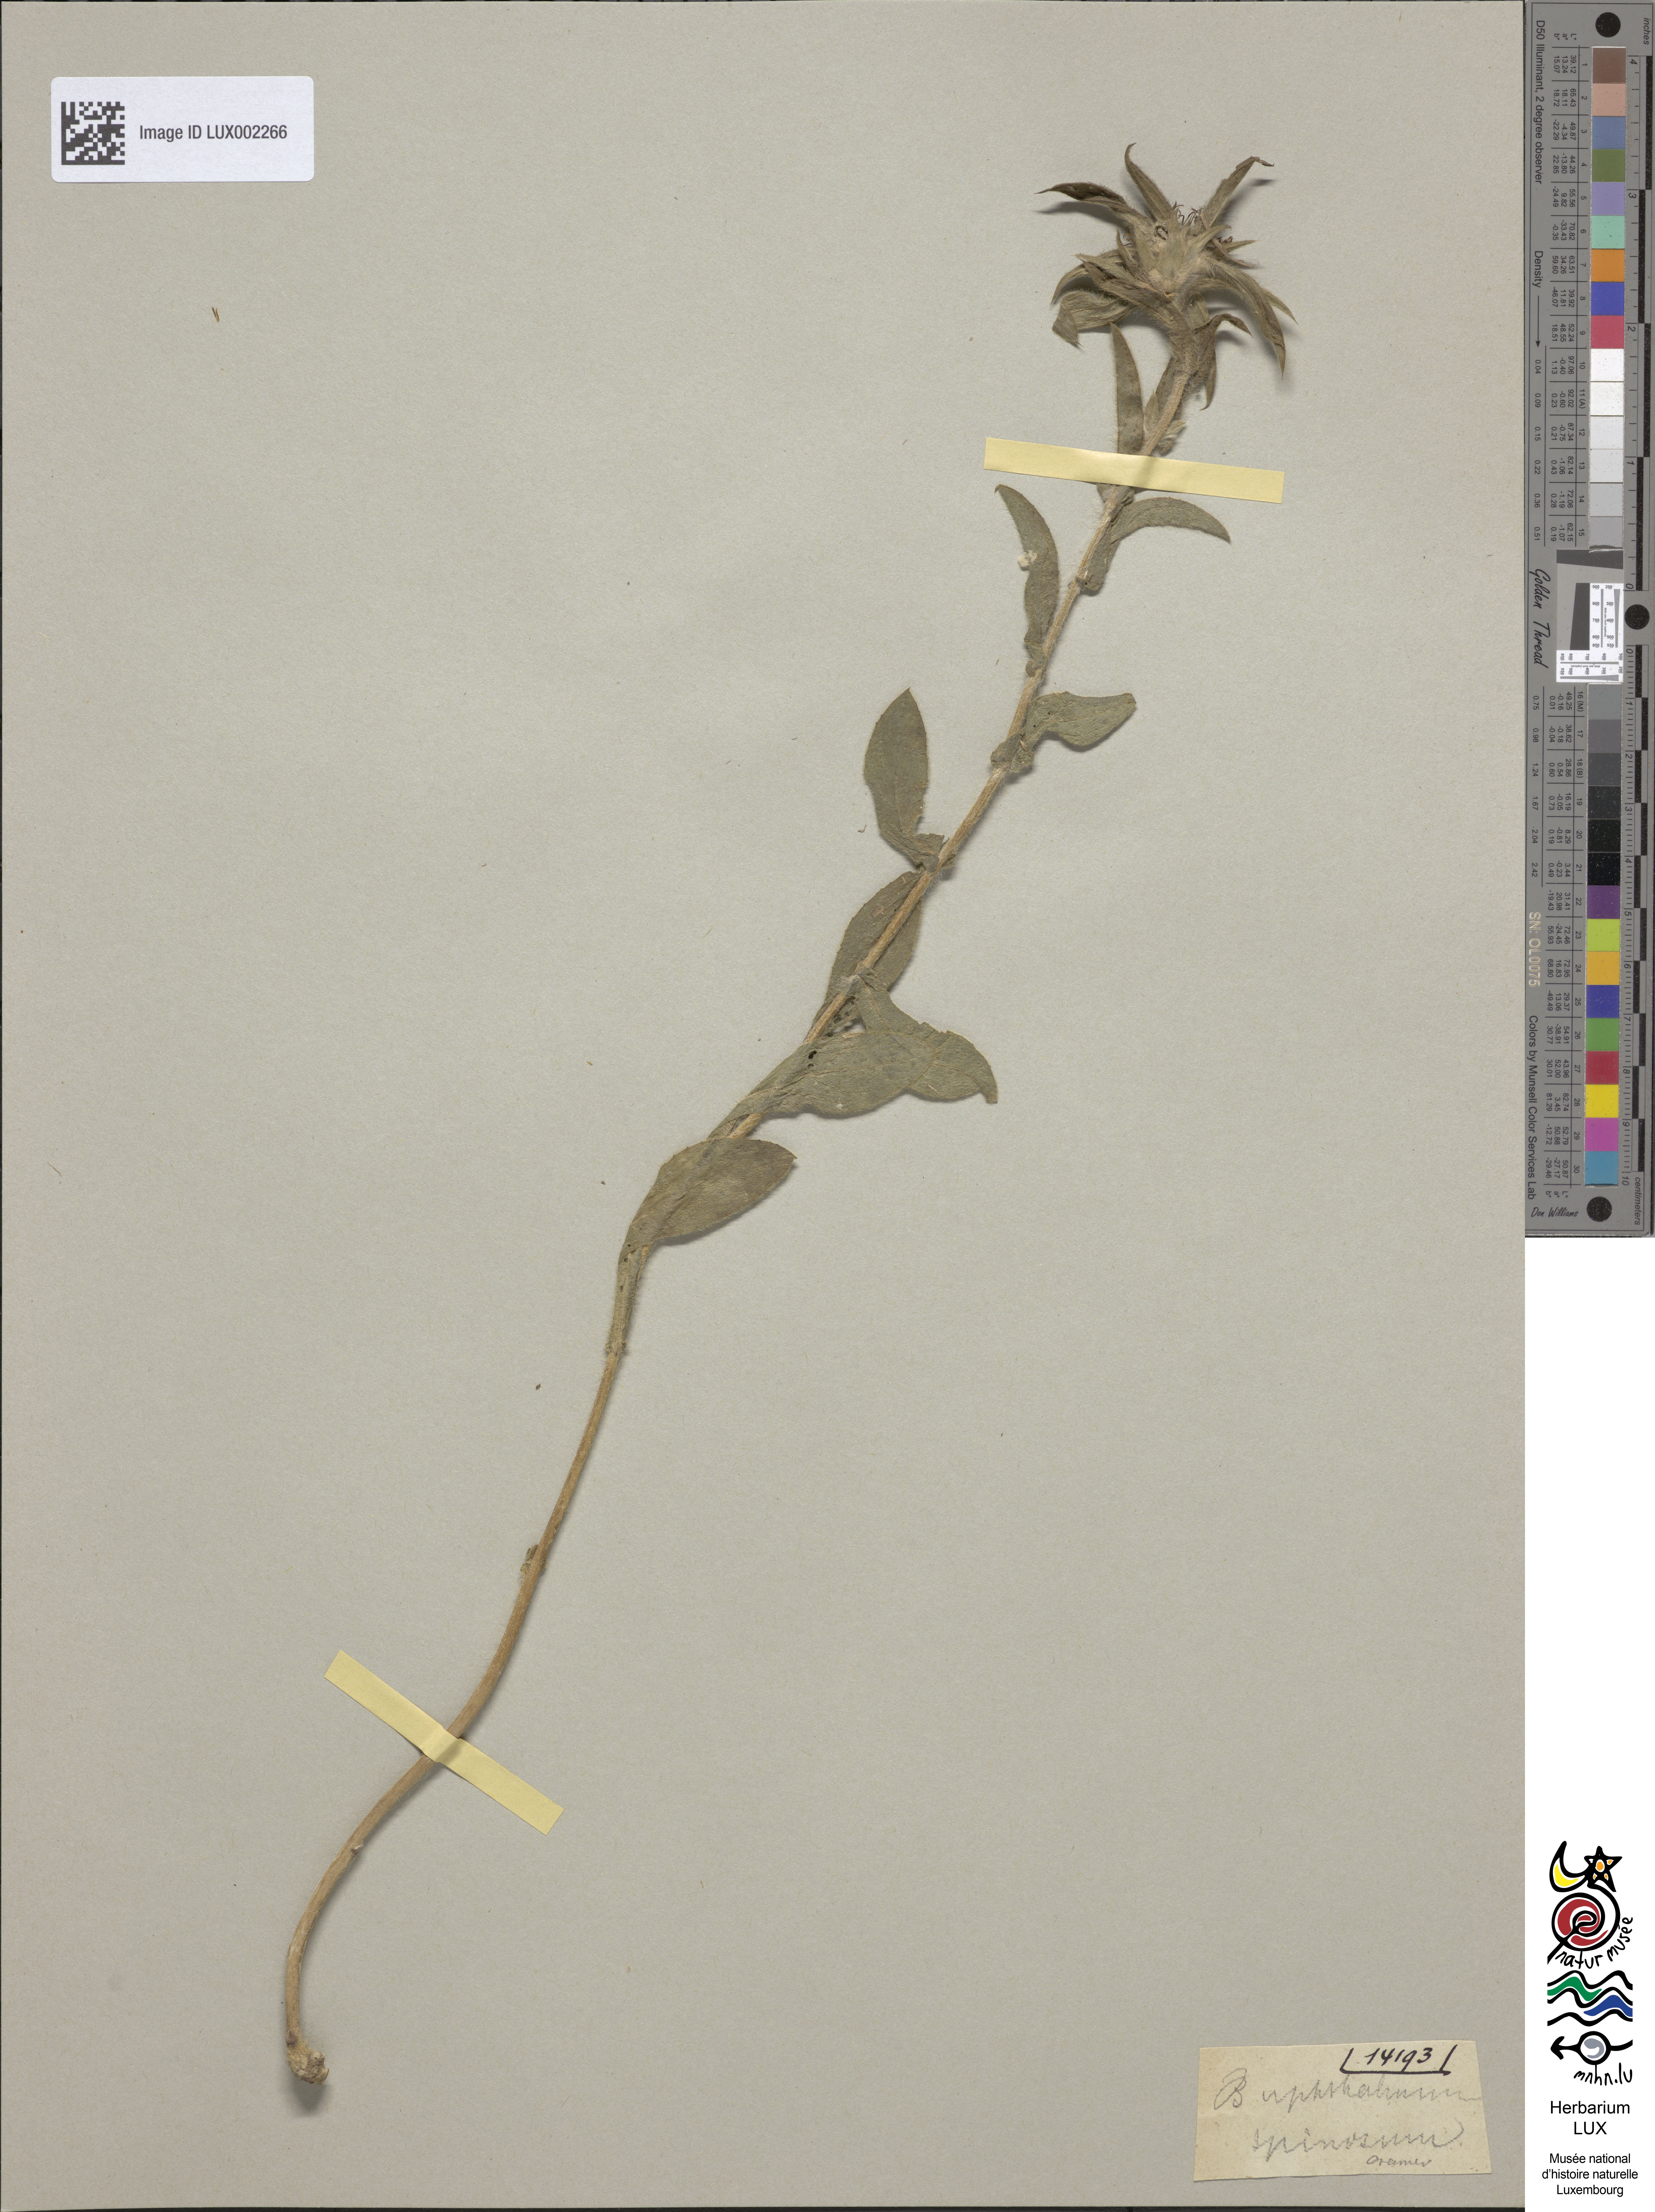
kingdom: Plantae
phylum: Tracheophyta
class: Magnoliopsida
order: Asterales
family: Asteraceae
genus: Pallenis
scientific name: Pallenis spinosa
